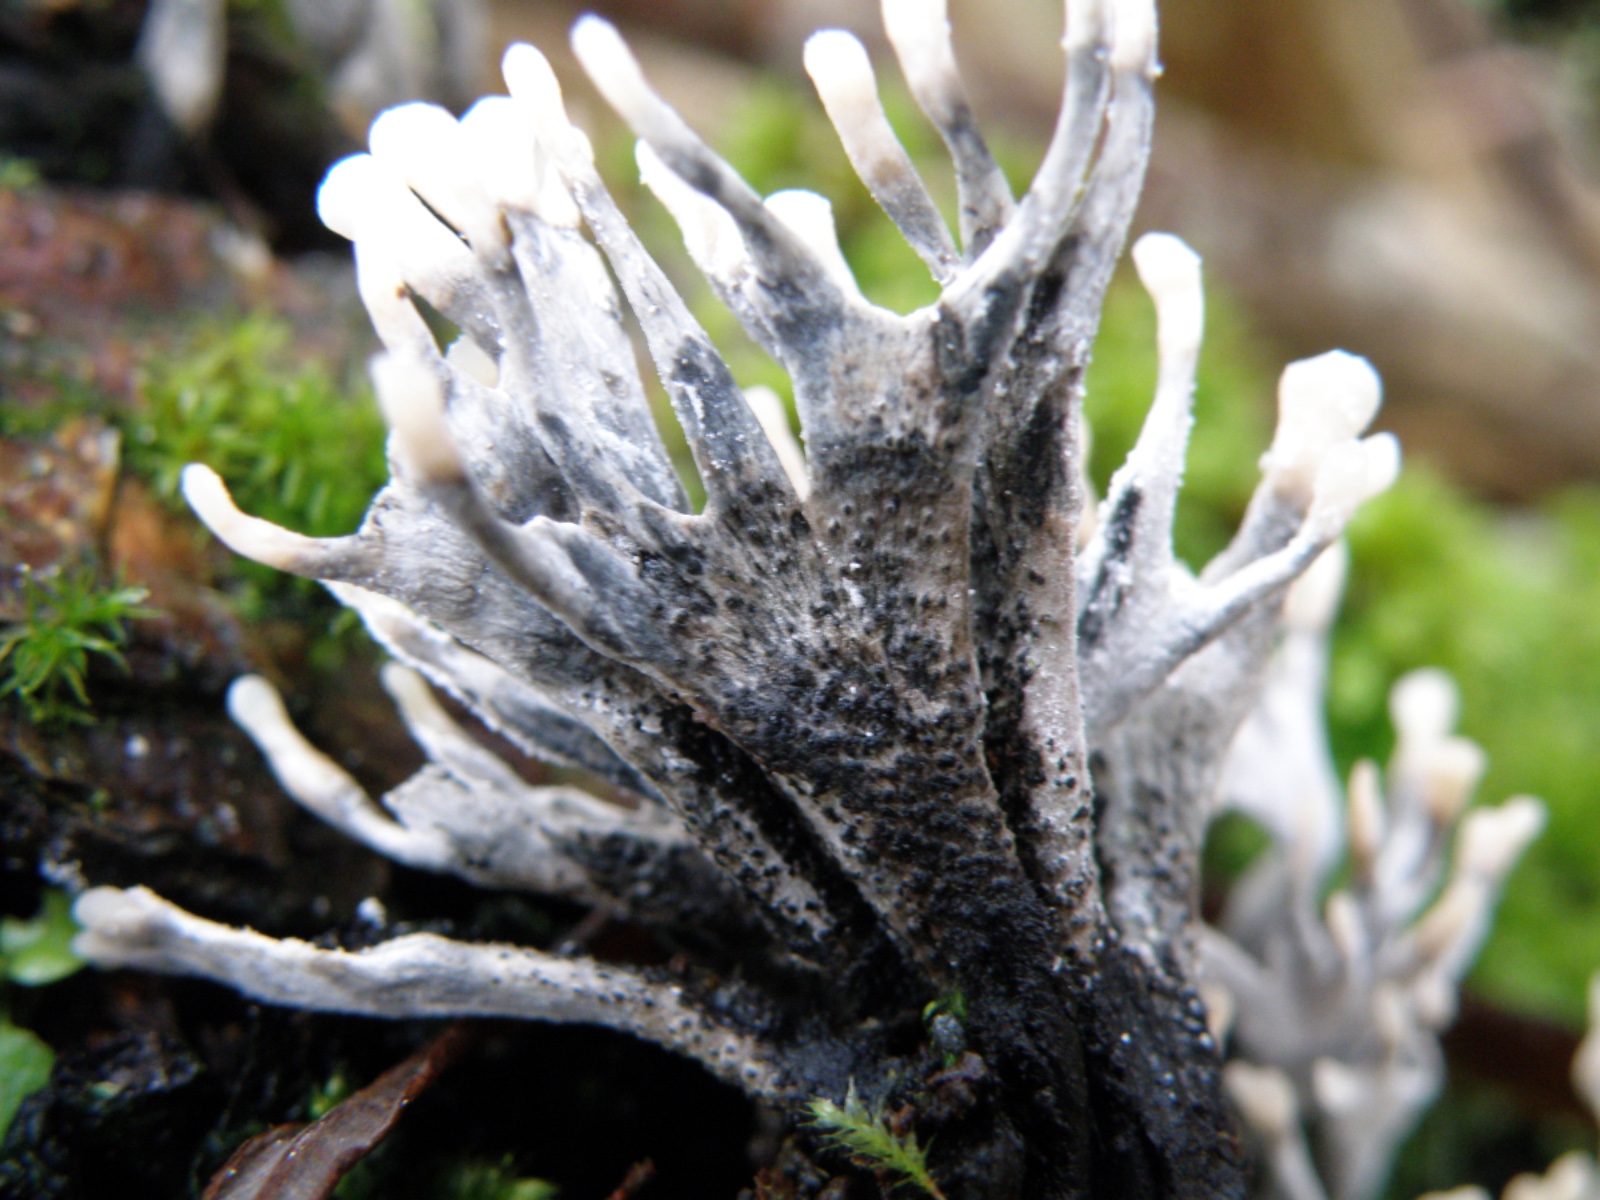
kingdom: Fungi
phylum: Ascomycota
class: Sordariomycetes
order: Xylariales
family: Xylariaceae
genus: Xylaria
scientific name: Xylaria hypoxylon
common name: grenet stødsvamp
